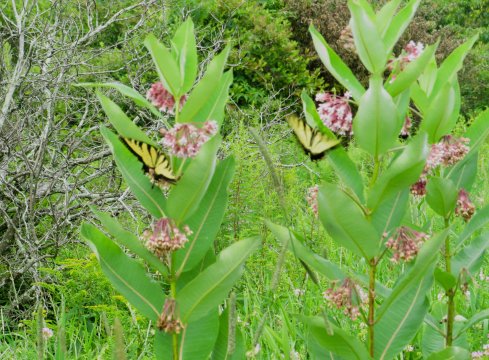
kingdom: Animalia
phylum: Arthropoda
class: Insecta
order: Lepidoptera
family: Papilionidae
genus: Pterourus
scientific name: Pterourus glaucus
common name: Eastern Tiger Swallowtail
